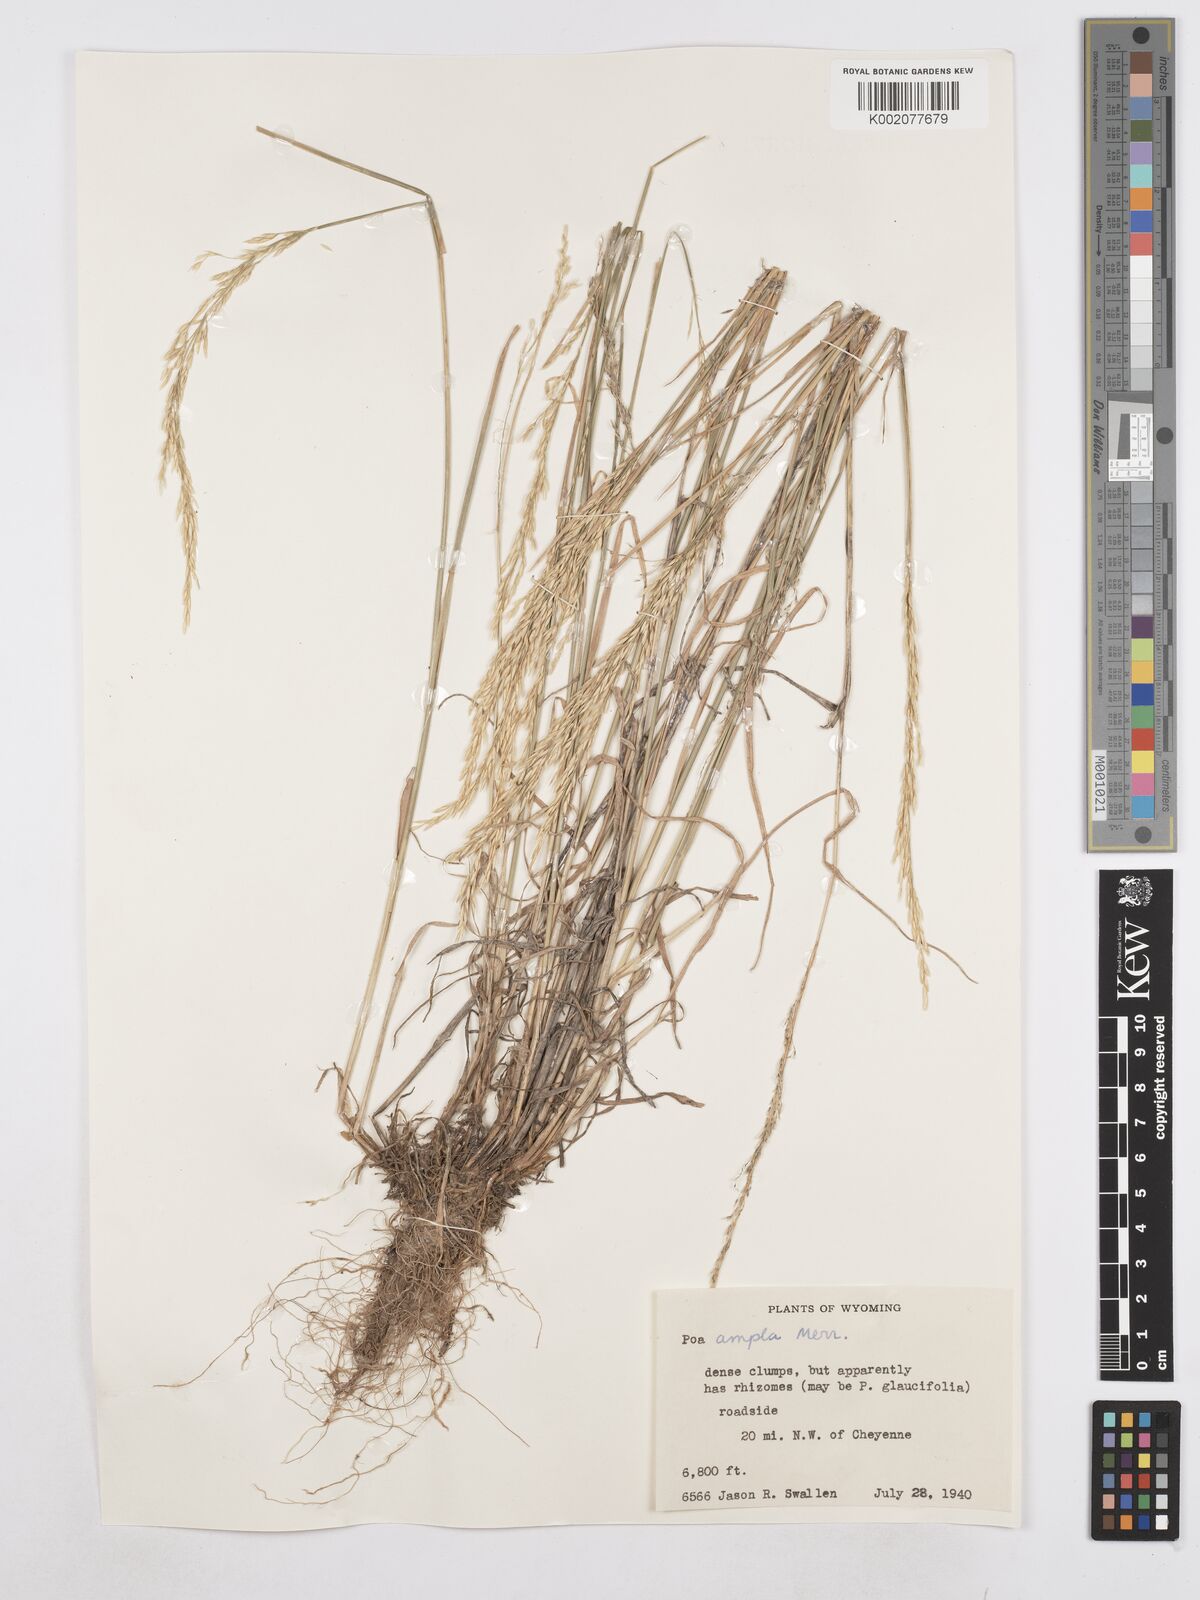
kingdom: Plantae
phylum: Tracheophyta
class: Liliopsida
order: Poales
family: Poaceae
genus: Poa
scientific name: Poa secunda
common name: Sandberg bluegrass
